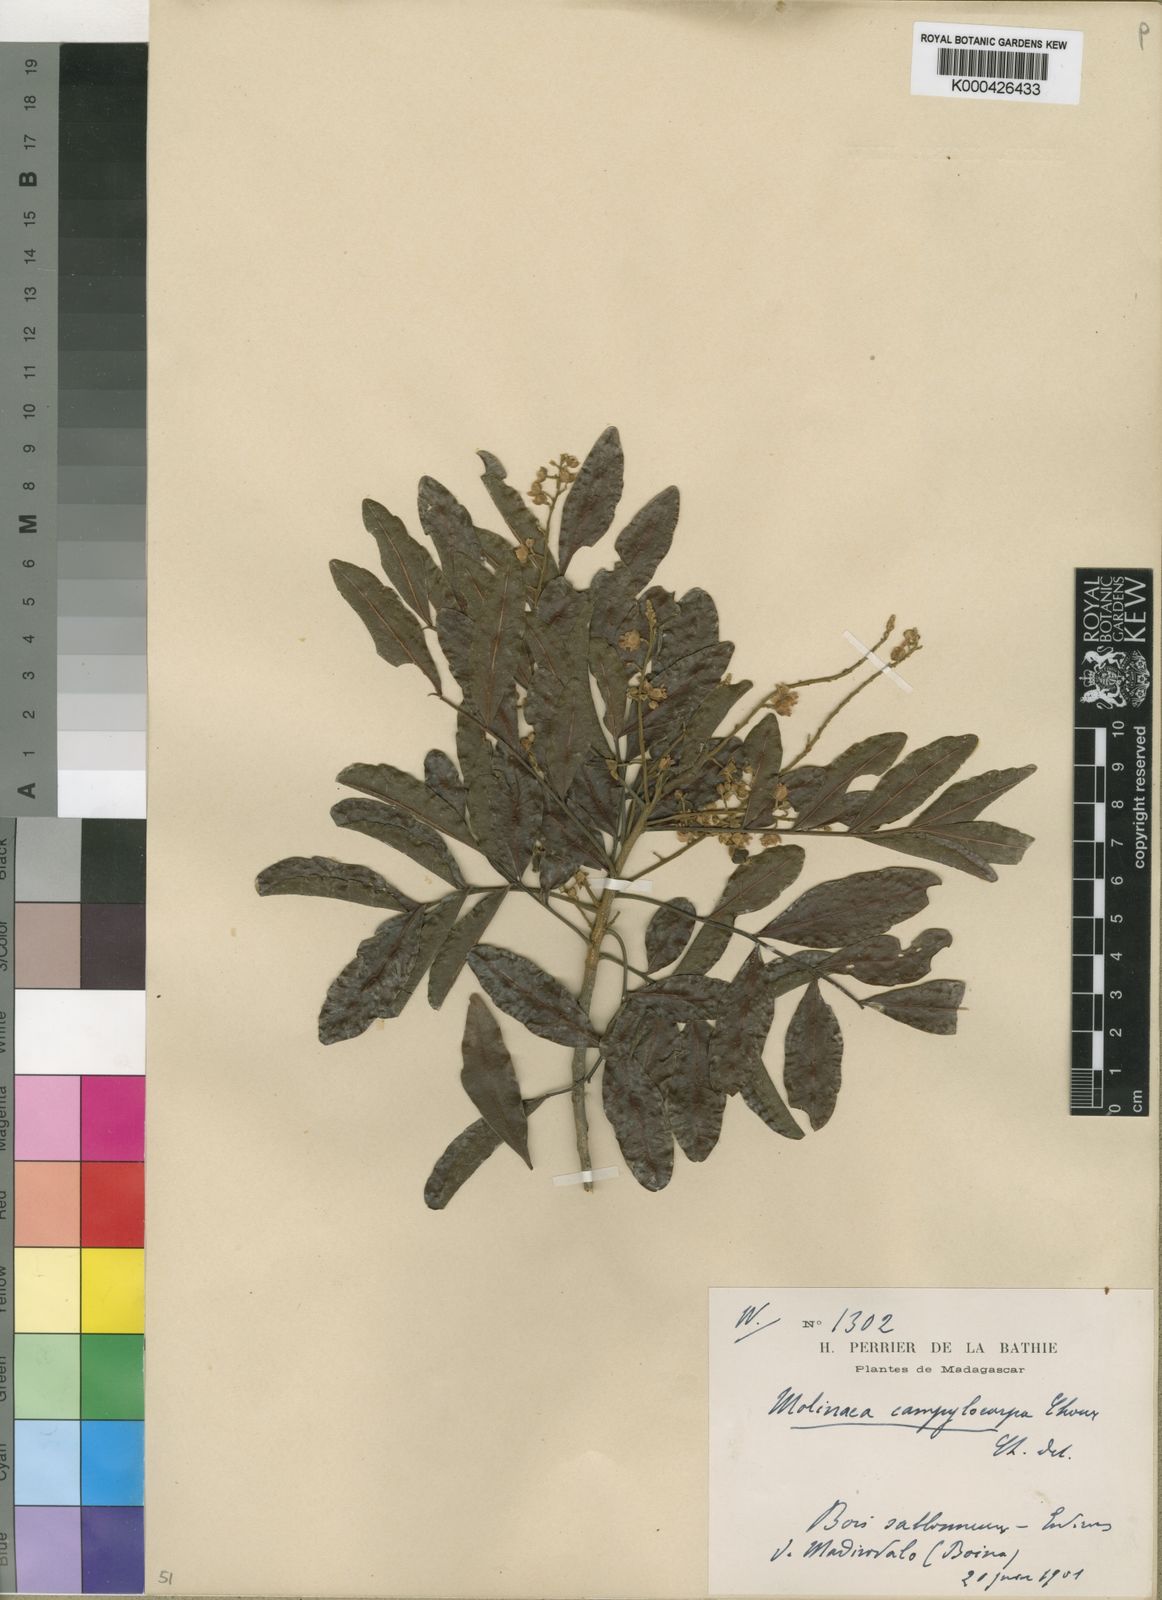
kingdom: Plantae
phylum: Tracheophyta
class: Magnoliopsida
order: Sapindales
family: Sapindaceae
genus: Molinaea
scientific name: Molinaea retusa
